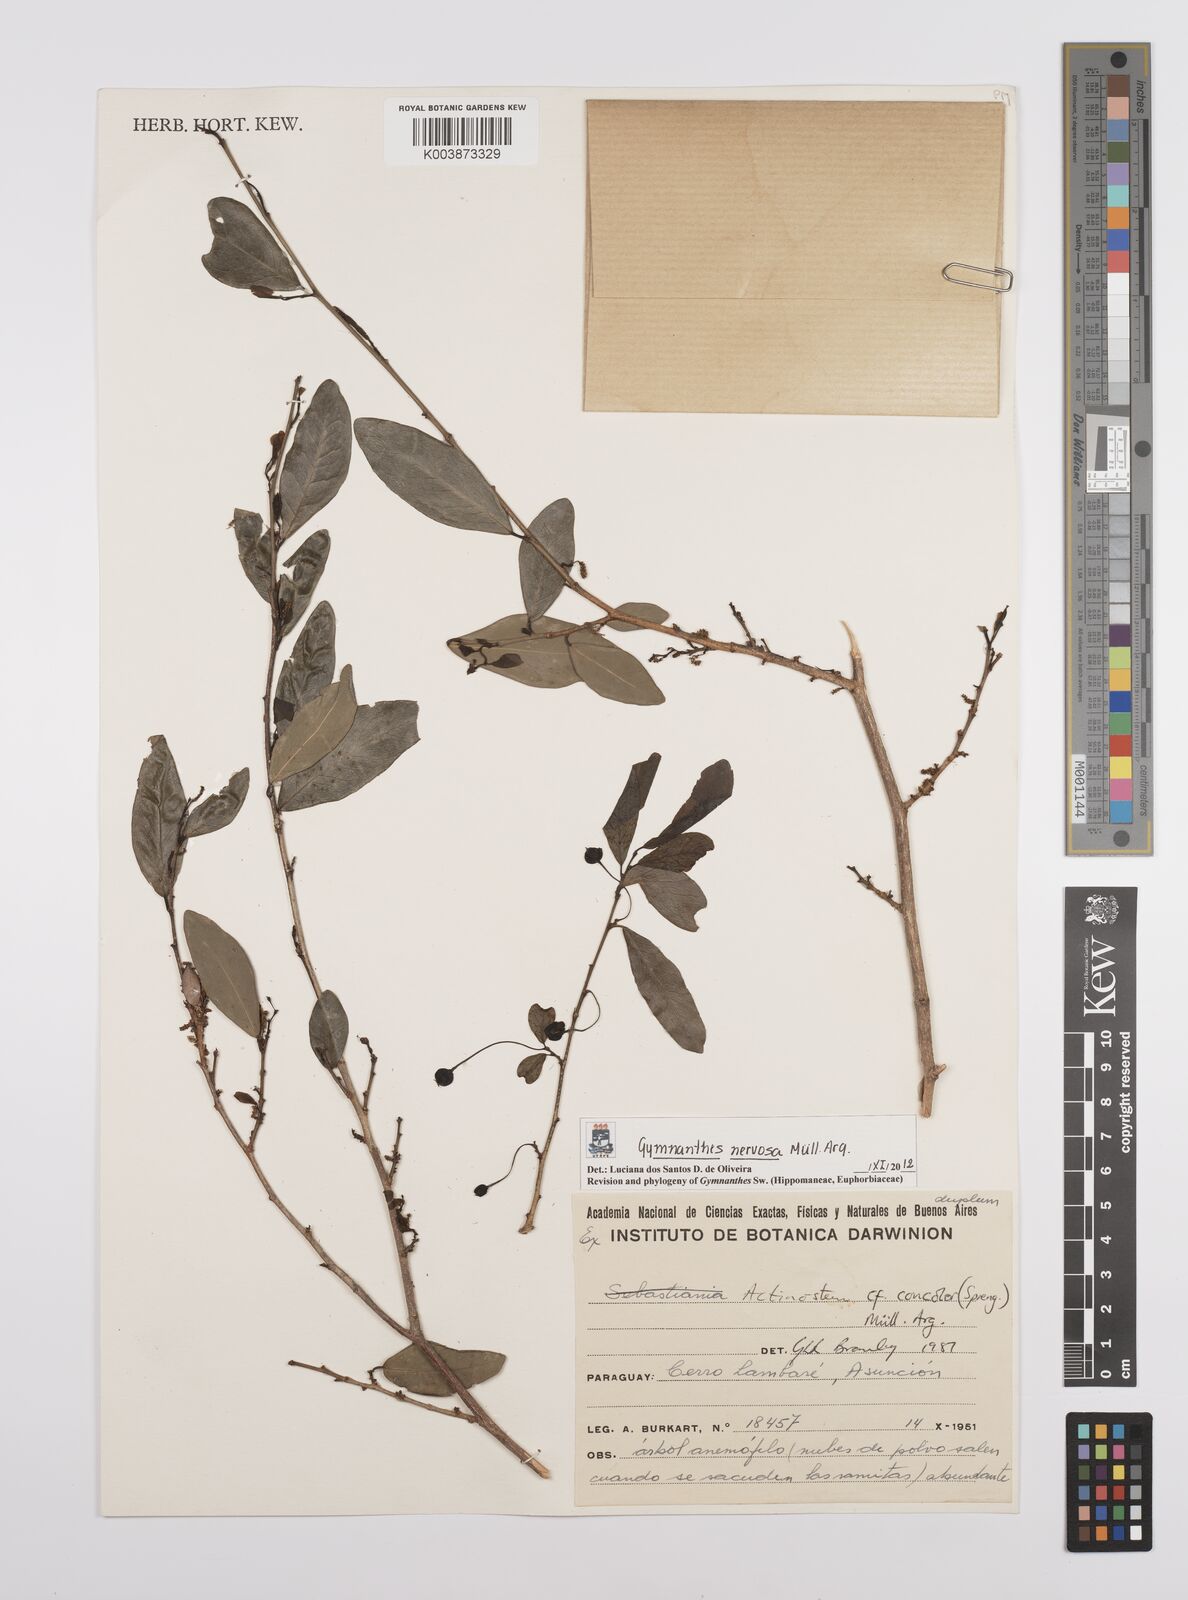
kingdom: Plantae
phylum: Tracheophyta
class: Magnoliopsida
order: Malpighiales
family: Euphorbiaceae
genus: Gymnanthes
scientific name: Gymnanthes nervosa
